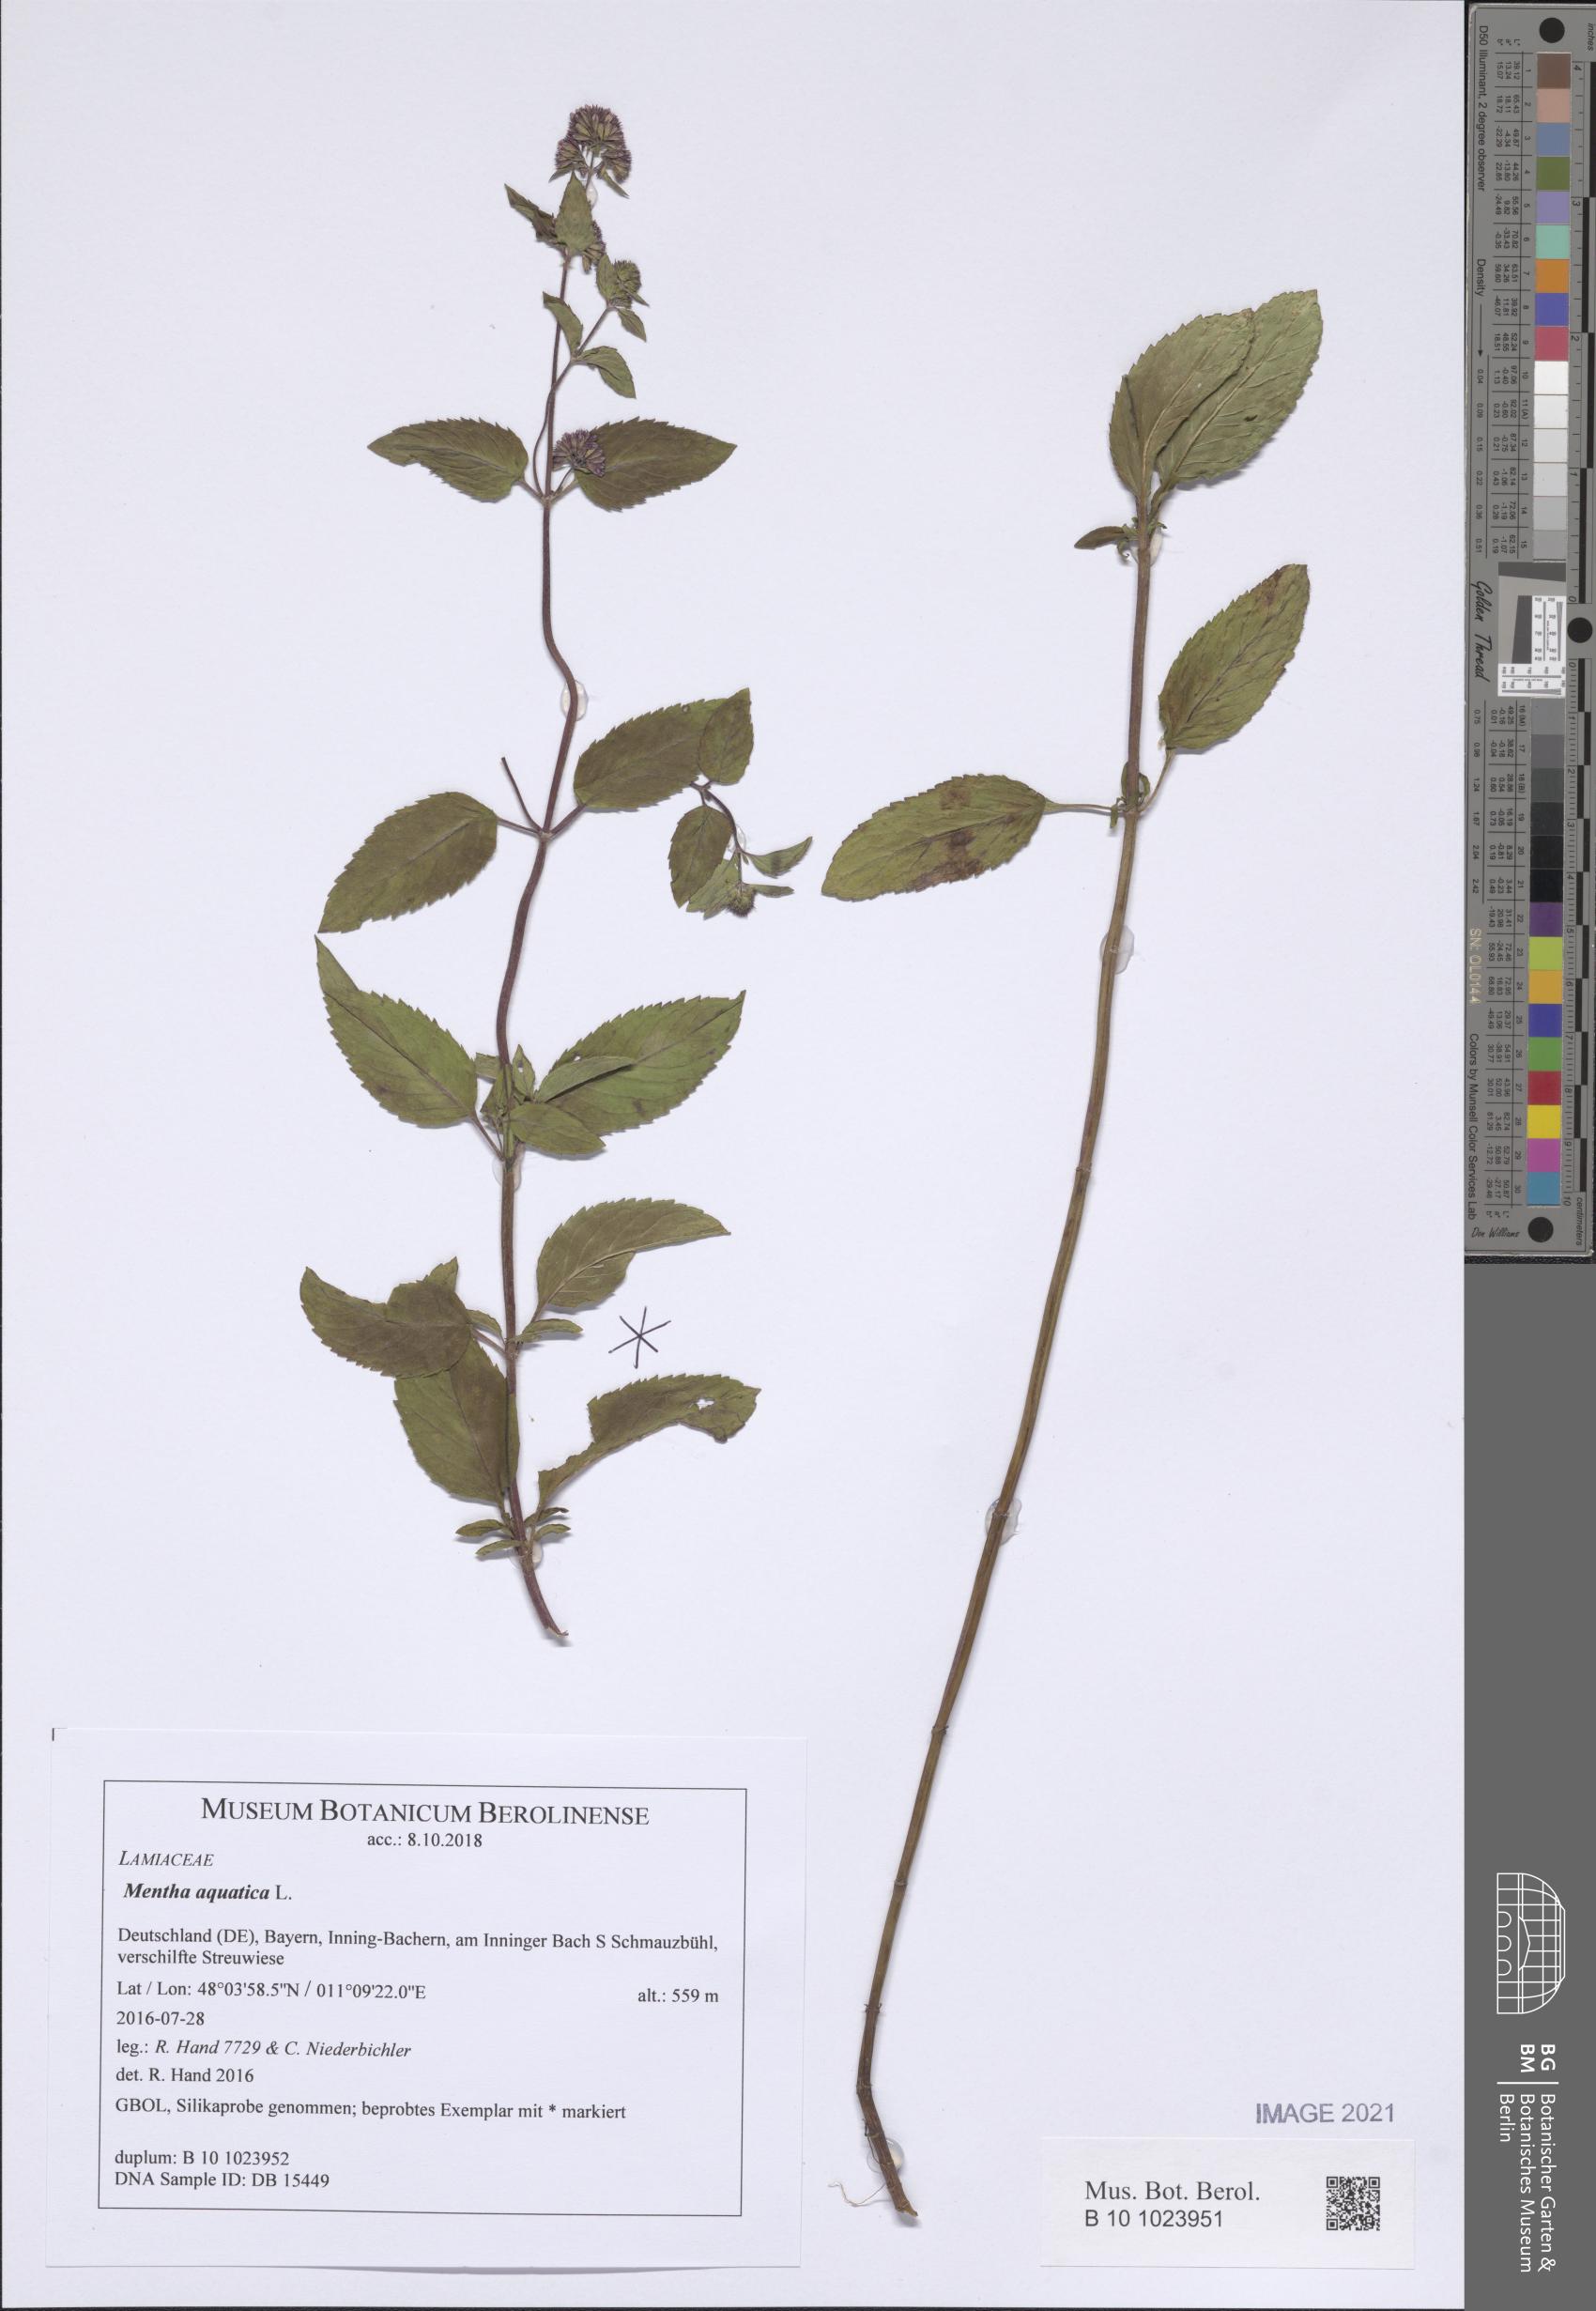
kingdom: Plantae
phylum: Tracheophyta
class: Magnoliopsida
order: Lamiales
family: Lamiaceae
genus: Mentha
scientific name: Mentha aquatica
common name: Water mint
